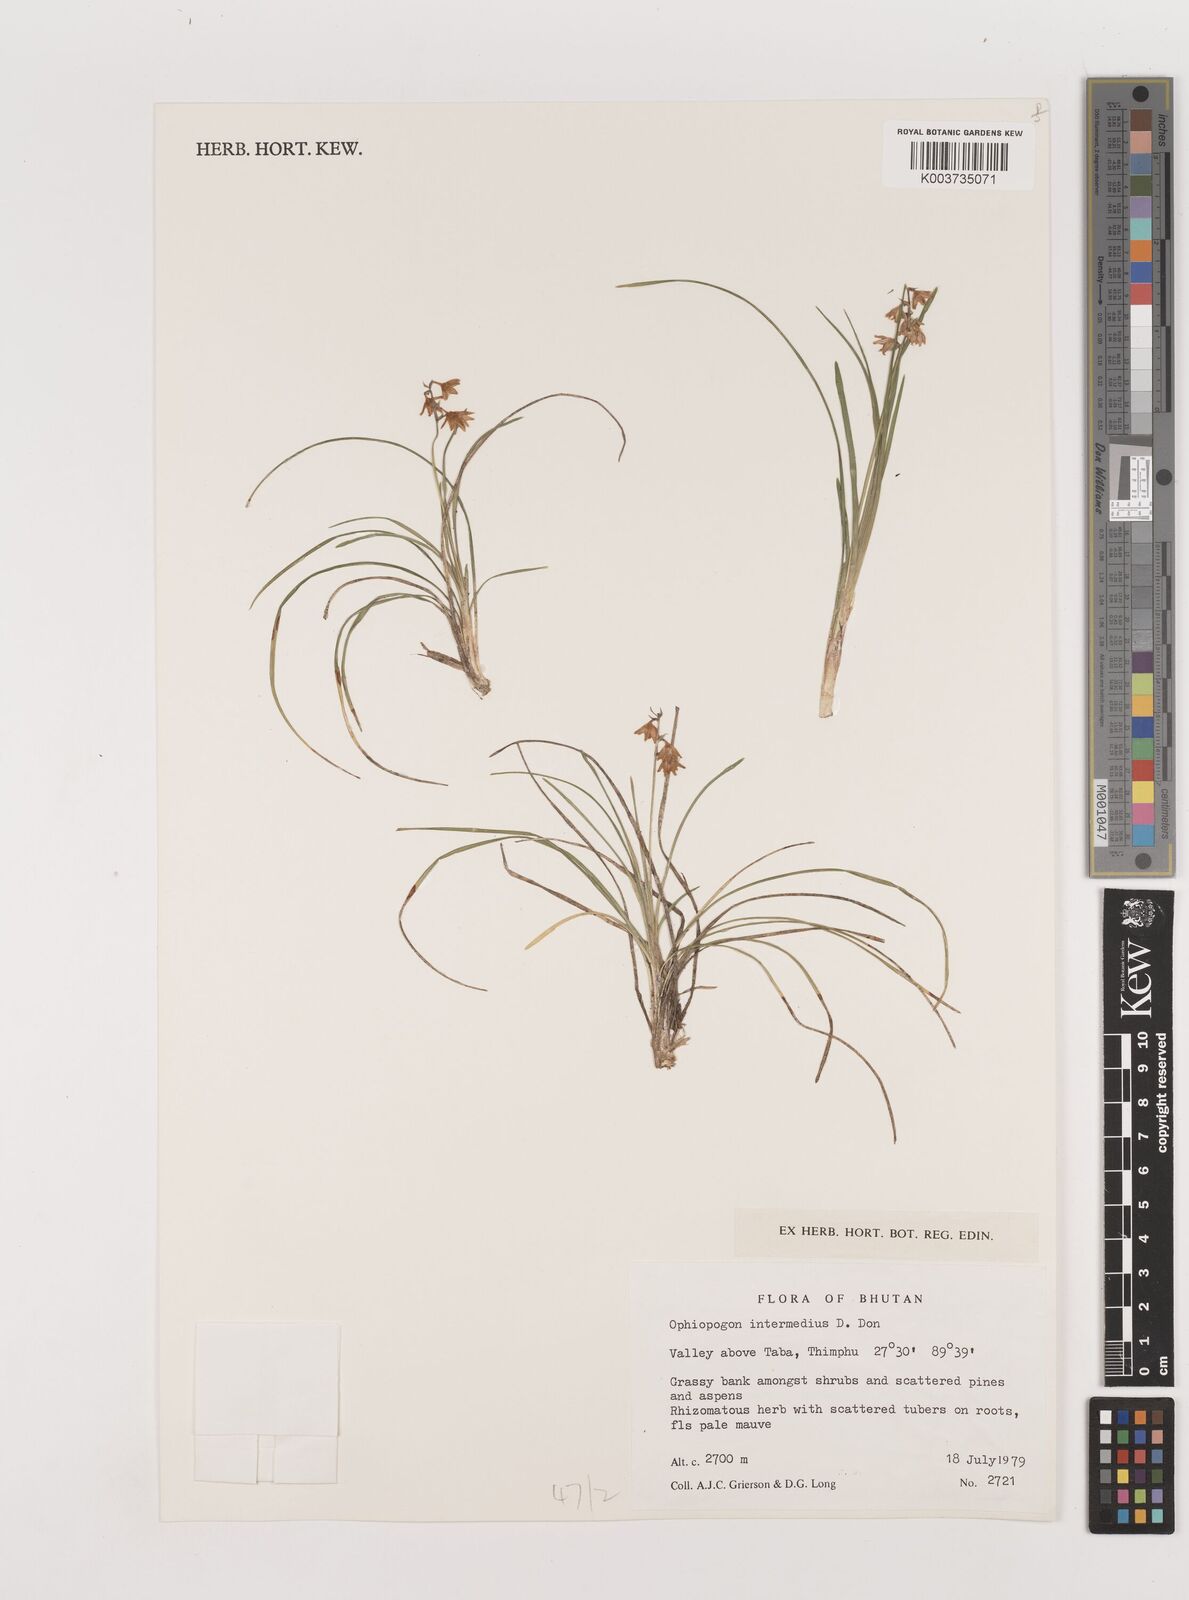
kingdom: Plantae
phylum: Tracheophyta
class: Liliopsida
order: Asparagales
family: Asparagaceae
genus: Ophiopogon
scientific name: Ophiopogon bodinieri
